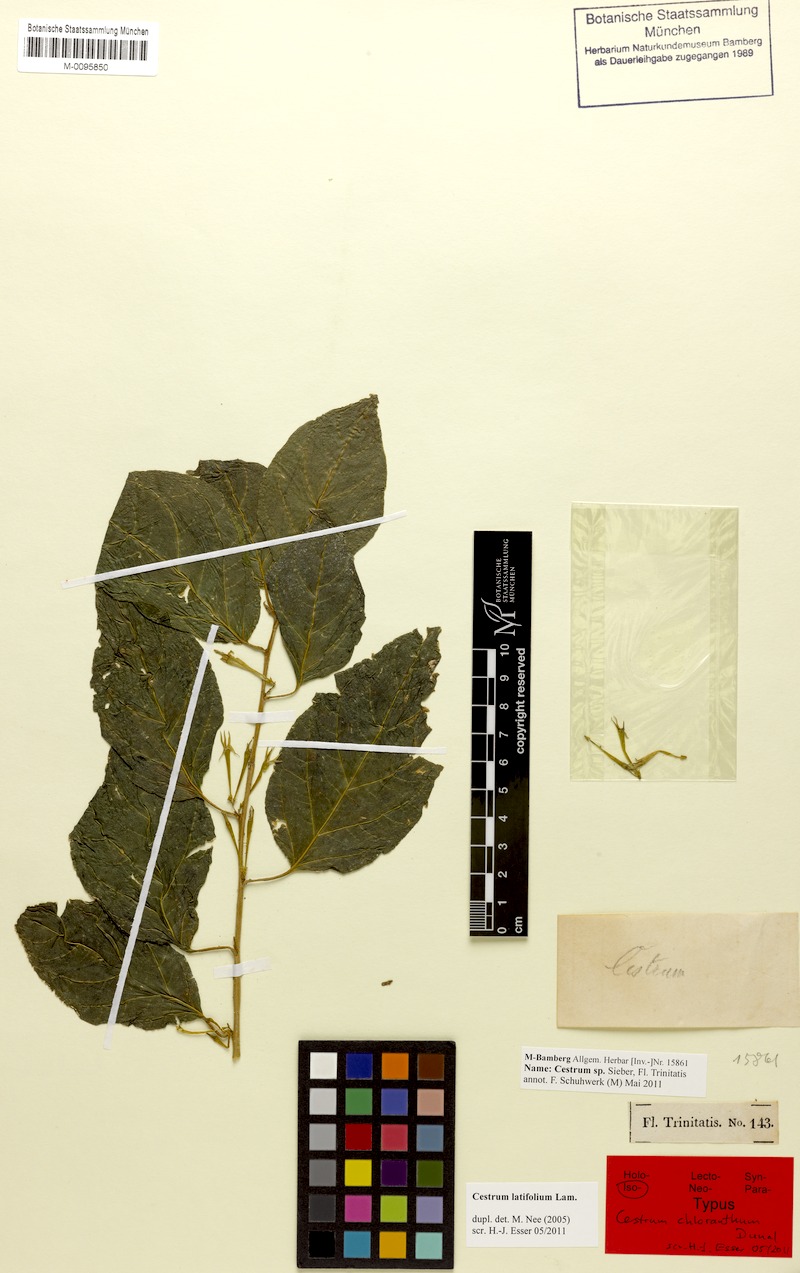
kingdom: Plantae
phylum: Tracheophyta
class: Magnoliopsida
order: Solanales
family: Solanaceae
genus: Cestrum
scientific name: Cestrum latifolium
